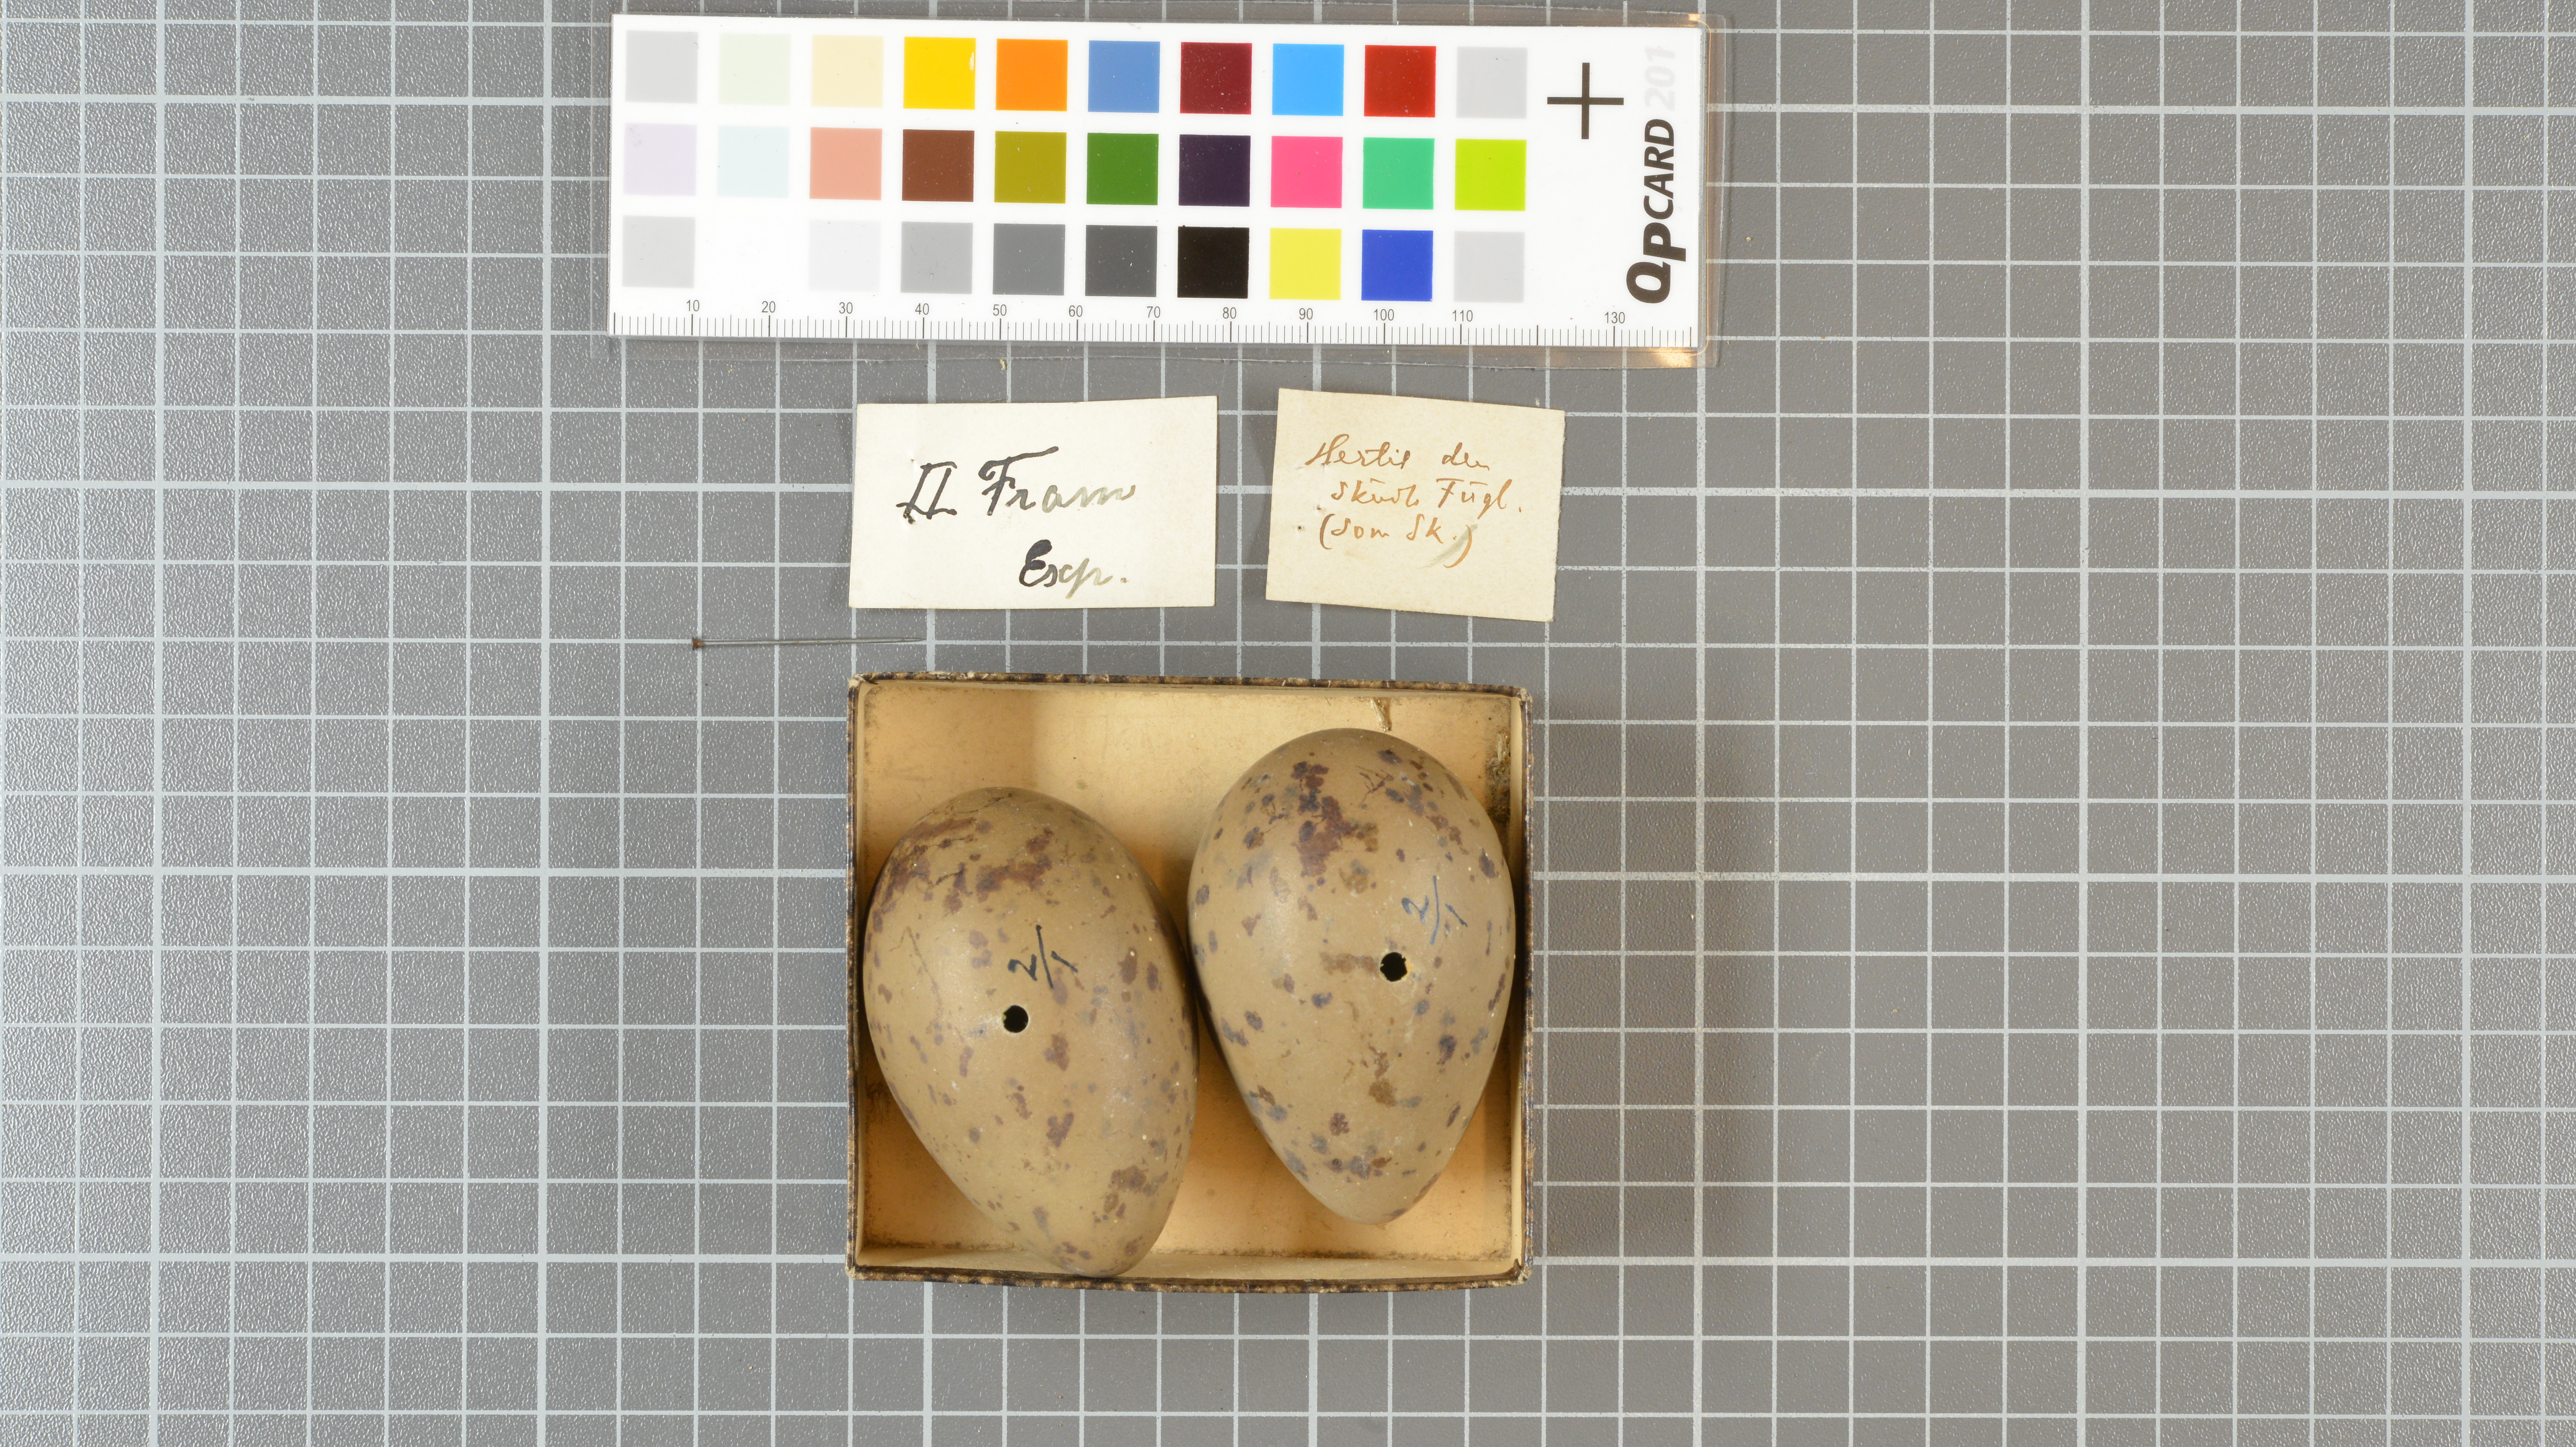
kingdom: Animalia
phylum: Chordata
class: Aves
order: Charadriiformes
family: Stercorariidae
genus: Stercorarius
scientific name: Stercorarius parasiticus
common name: Parasitic jaeger
